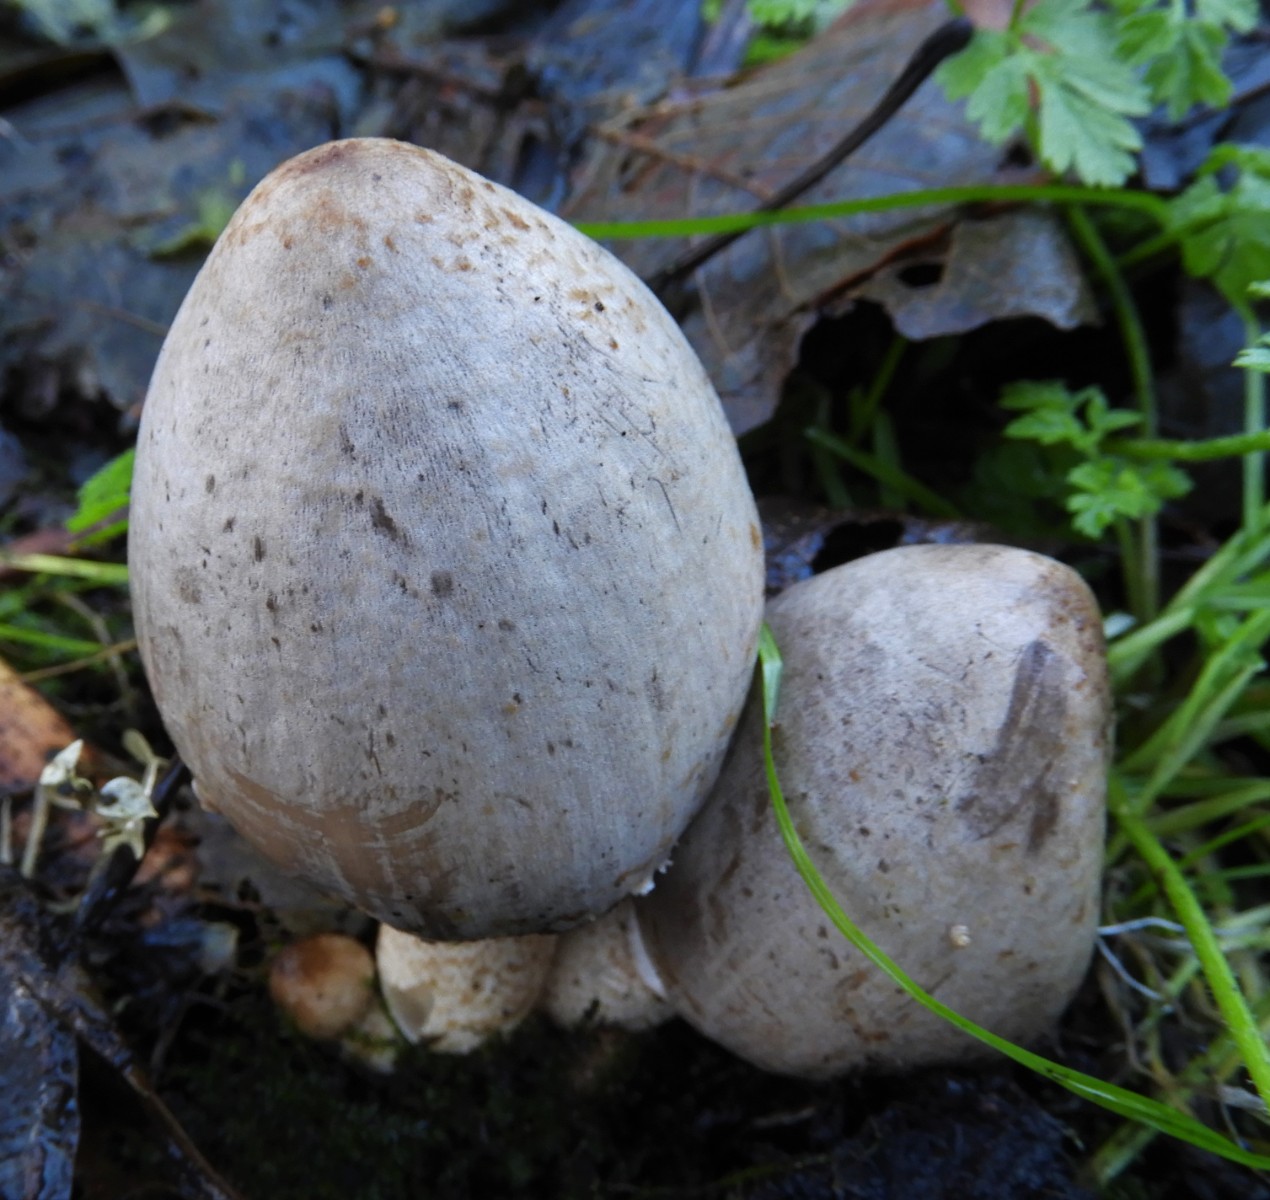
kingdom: Fungi
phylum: Basidiomycota
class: Agaricomycetes
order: Agaricales
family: Psathyrellaceae
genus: Coprinopsis
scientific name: Coprinopsis atramentaria
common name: almindelig blækhat
